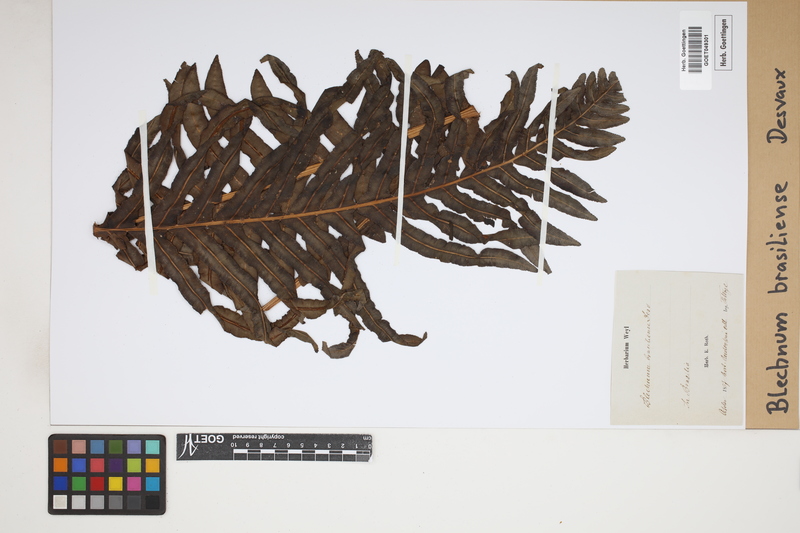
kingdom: Plantae
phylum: Tracheophyta
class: Polypodiopsida
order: Polypodiales
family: Blechnaceae
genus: Neoblechnum
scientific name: Neoblechnum brasiliense
